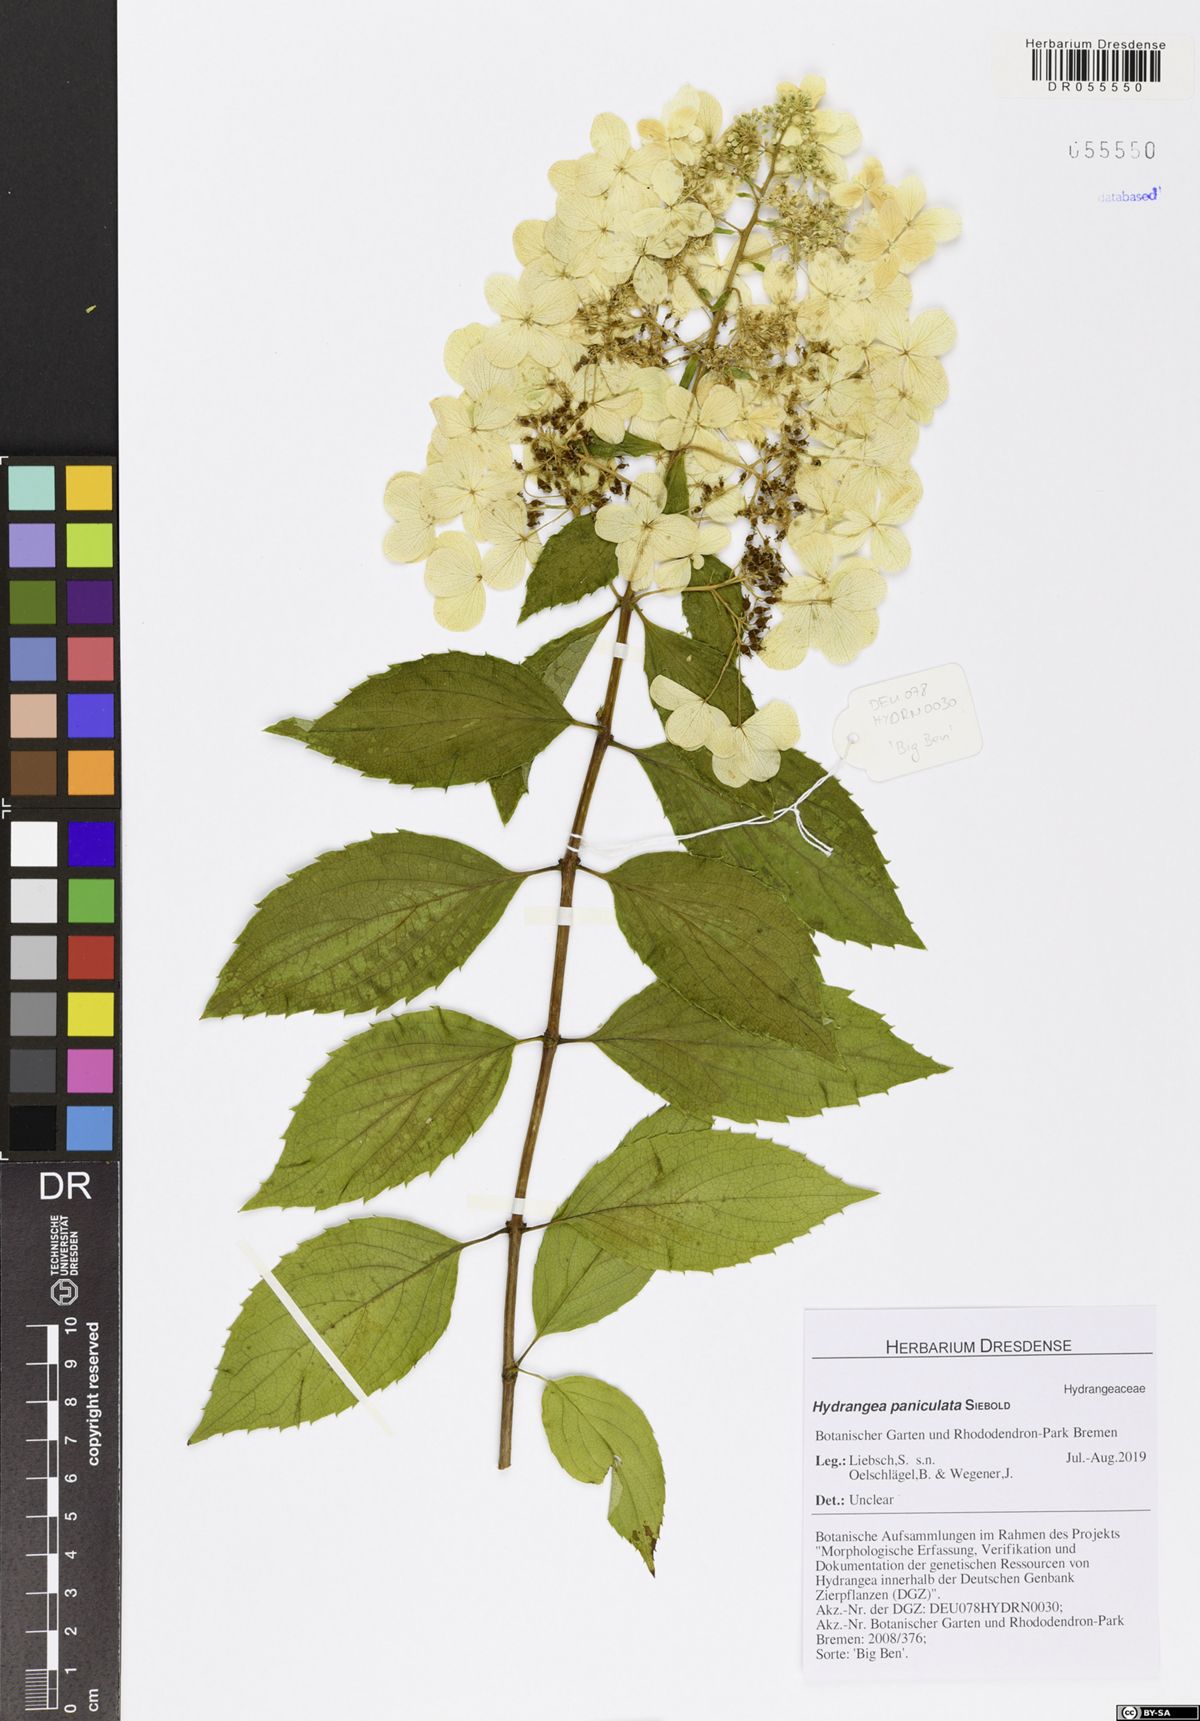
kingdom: Plantae
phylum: Tracheophyta
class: Magnoliopsida
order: Cornales
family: Hydrangeaceae
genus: Hydrangea
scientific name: Hydrangea paniculata
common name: Panicled hydrangea
